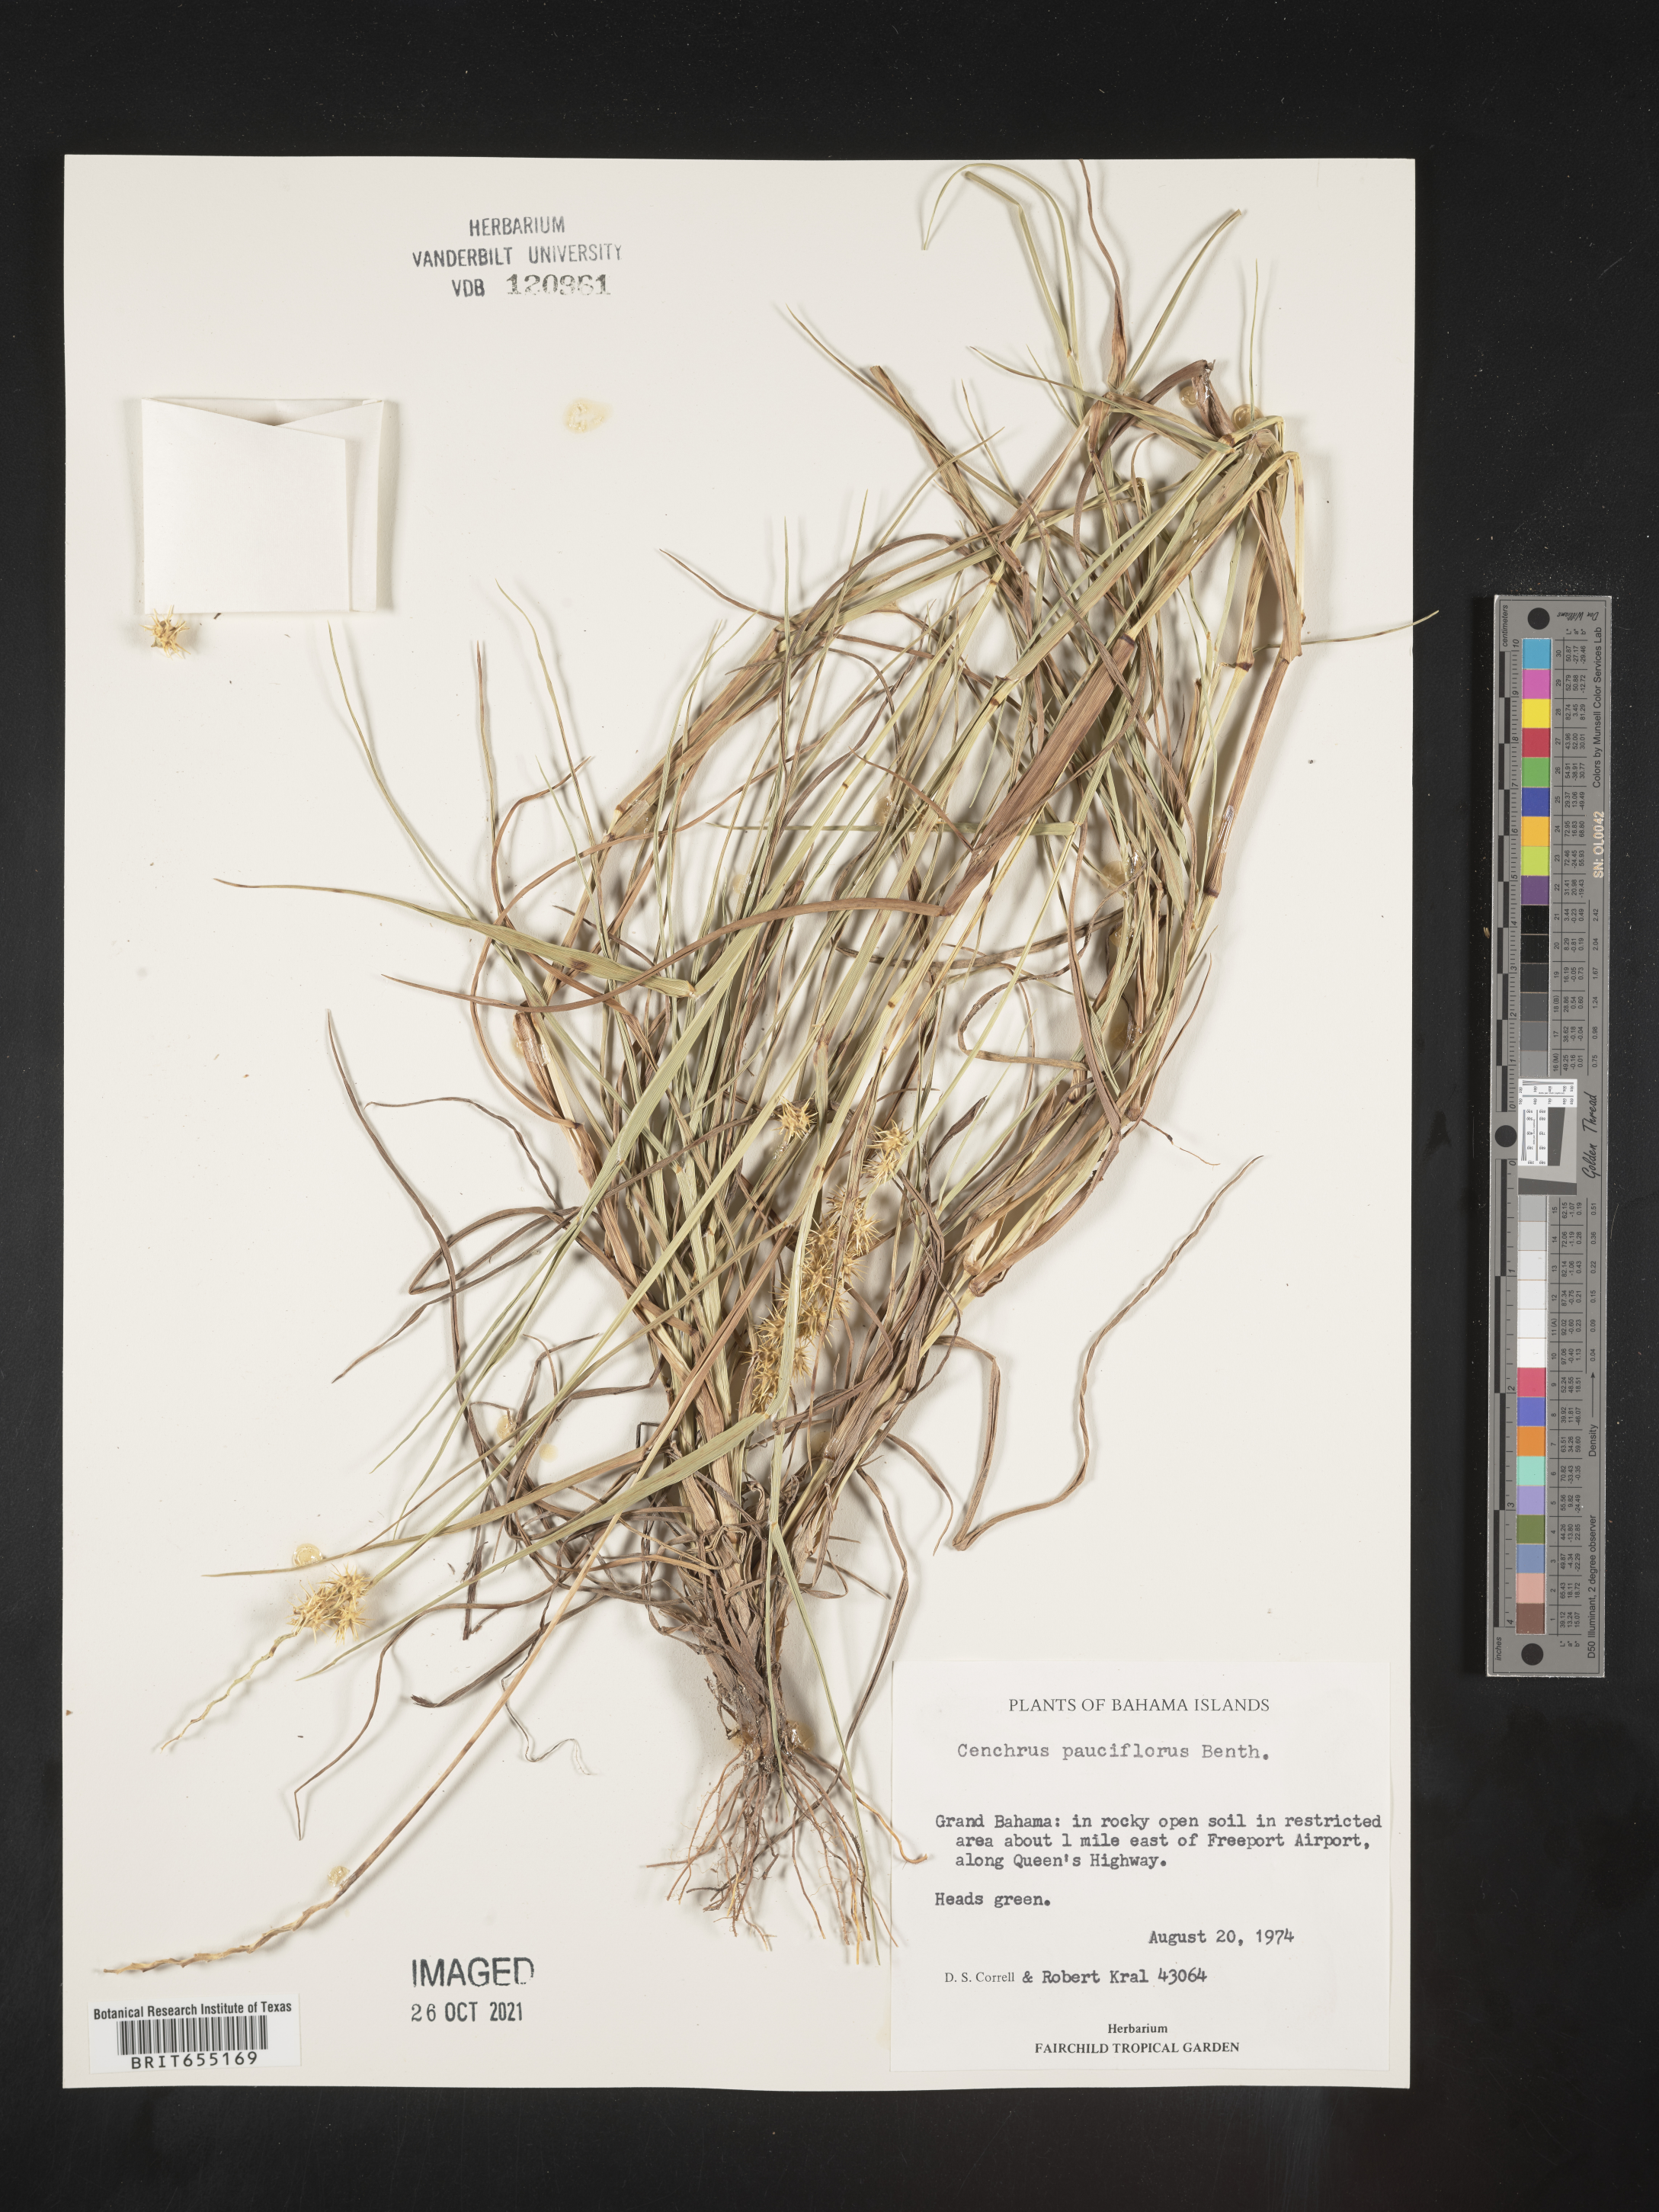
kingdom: Plantae
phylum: Tracheophyta
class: Liliopsida
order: Poales
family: Poaceae
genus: Cenchrus
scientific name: Cenchrus
